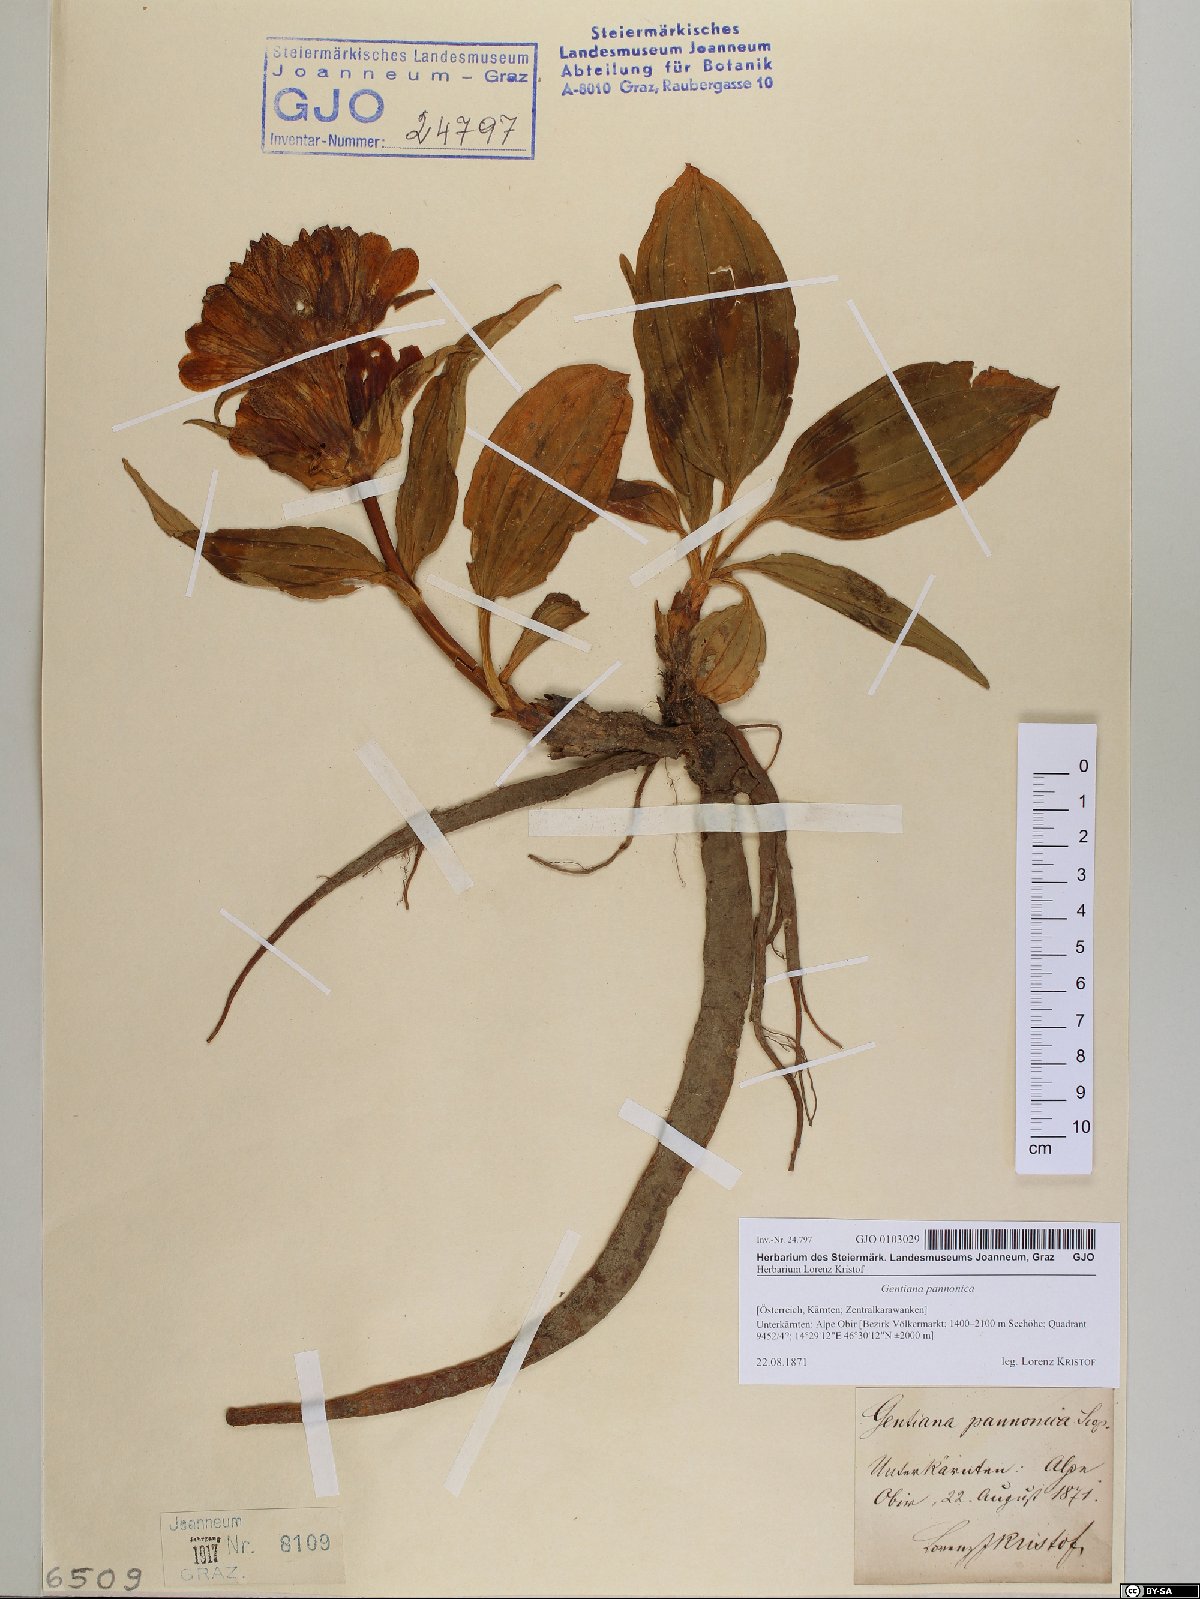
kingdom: Plantae
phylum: Tracheophyta
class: Magnoliopsida
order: Gentianales
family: Gentianaceae
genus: Gentiana
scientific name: Gentiana pannonica
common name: Hungarian gentian
